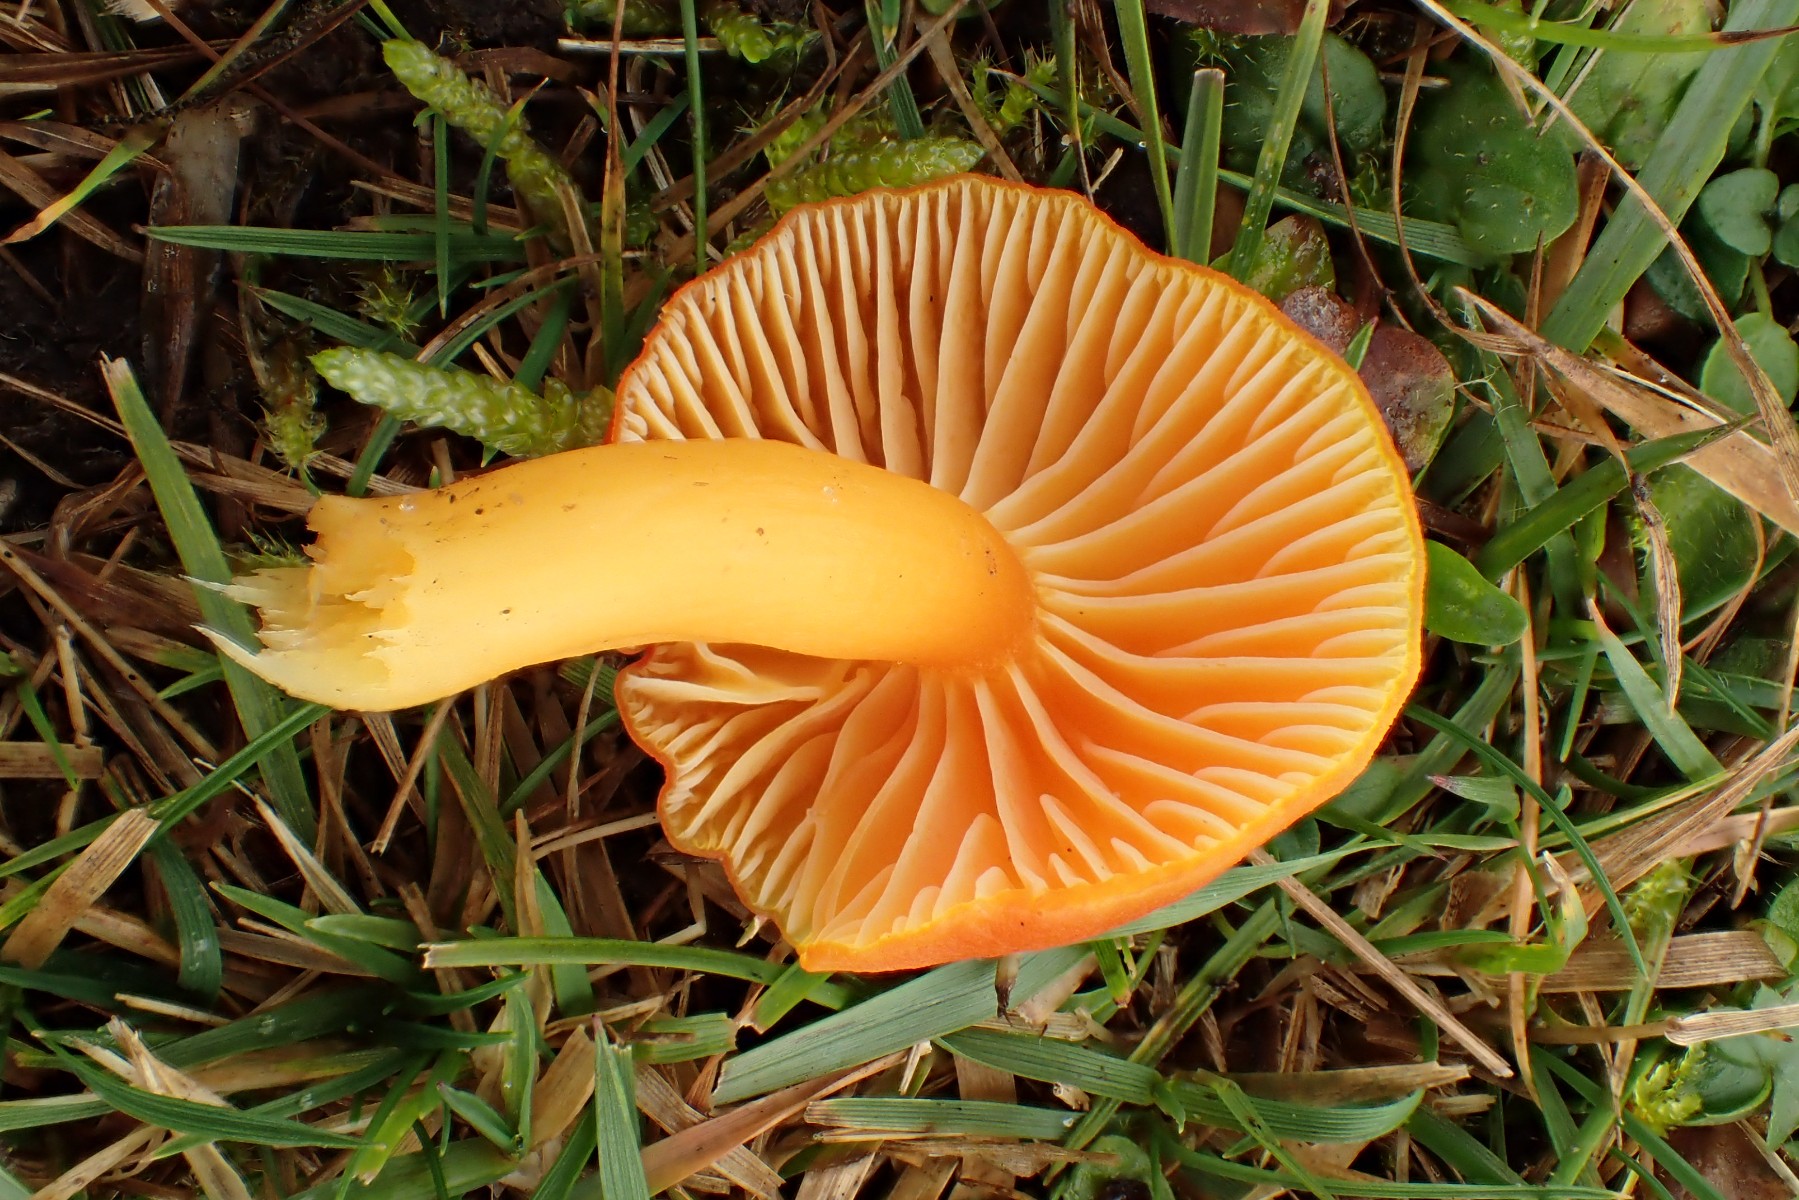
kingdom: Fungi
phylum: Basidiomycota
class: Agaricomycetes
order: Agaricales
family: Hygrophoraceae
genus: Hygrocybe
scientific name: Hygrocybe reidii
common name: honning-vokshat
